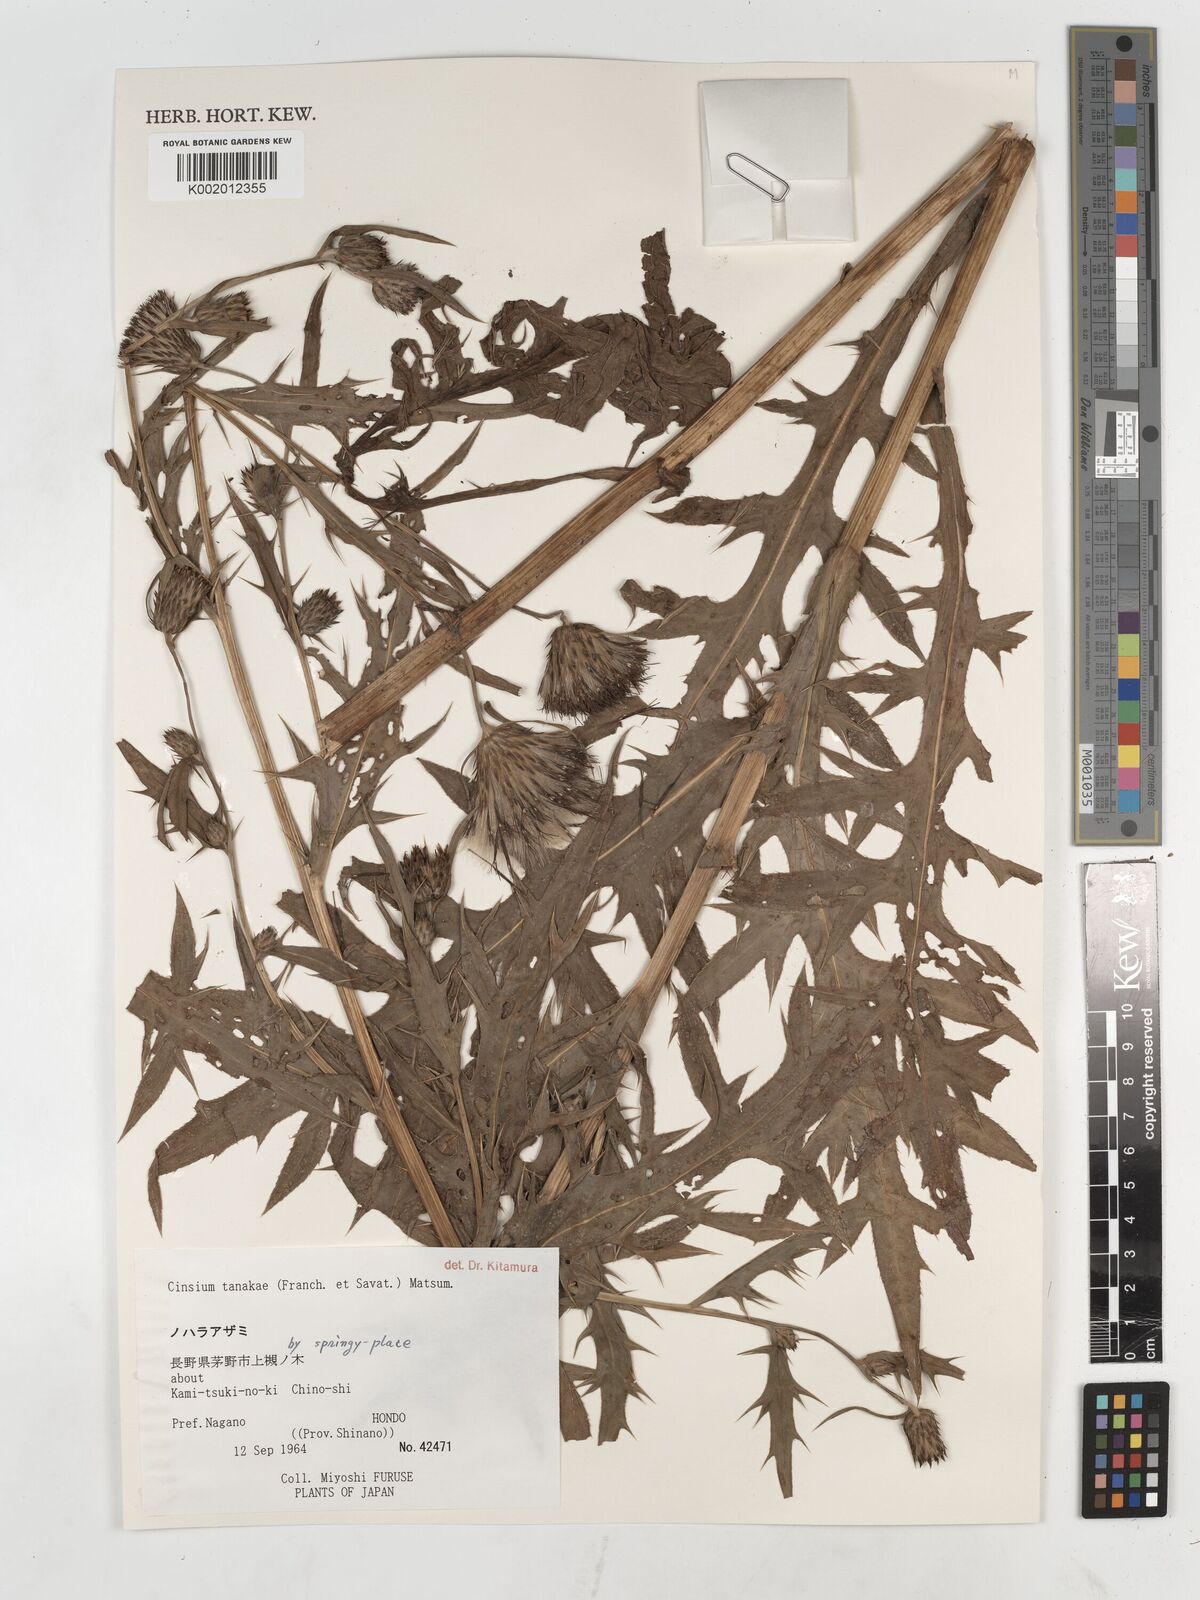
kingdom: Plantae
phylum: Tracheophyta
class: Magnoliopsida
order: Asterales
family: Asteraceae
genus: Cirsium
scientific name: Cirsium nipponicum
